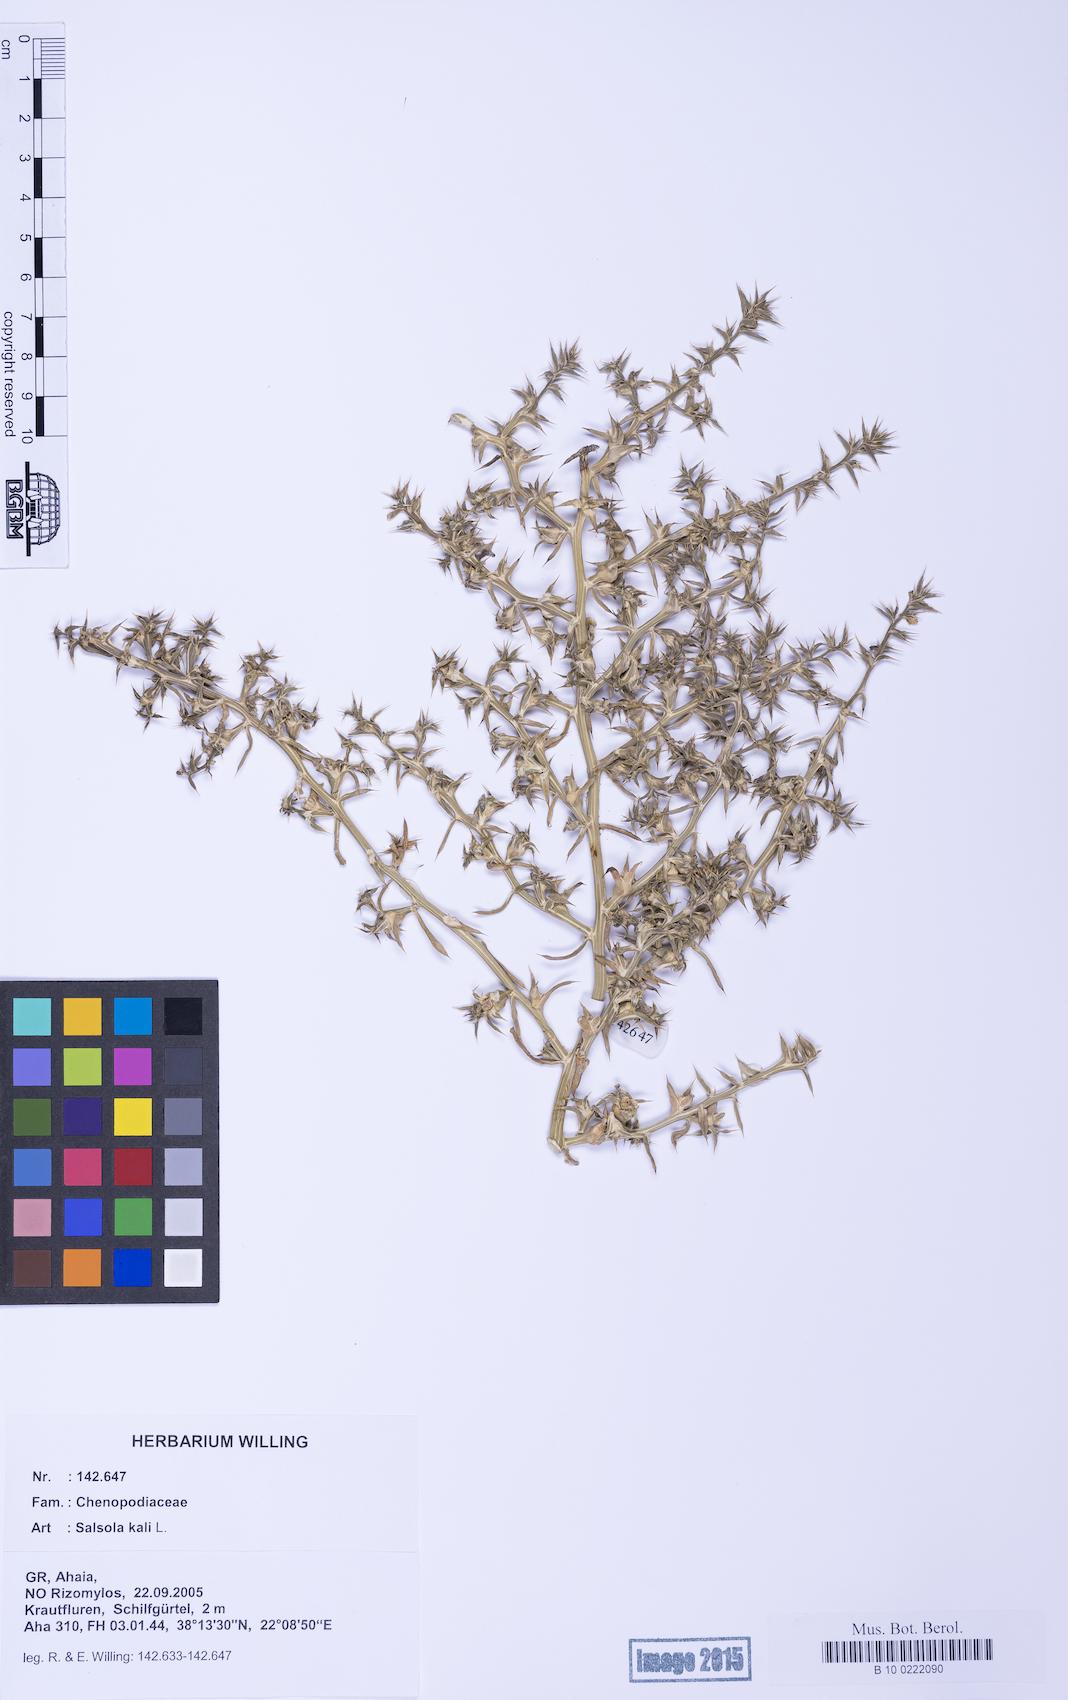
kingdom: Plantae
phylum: Tracheophyta
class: Magnoliopsida
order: Caryophyllales
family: Amaranthaceae
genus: Salsola
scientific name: Salsola kali
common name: Saltwort
